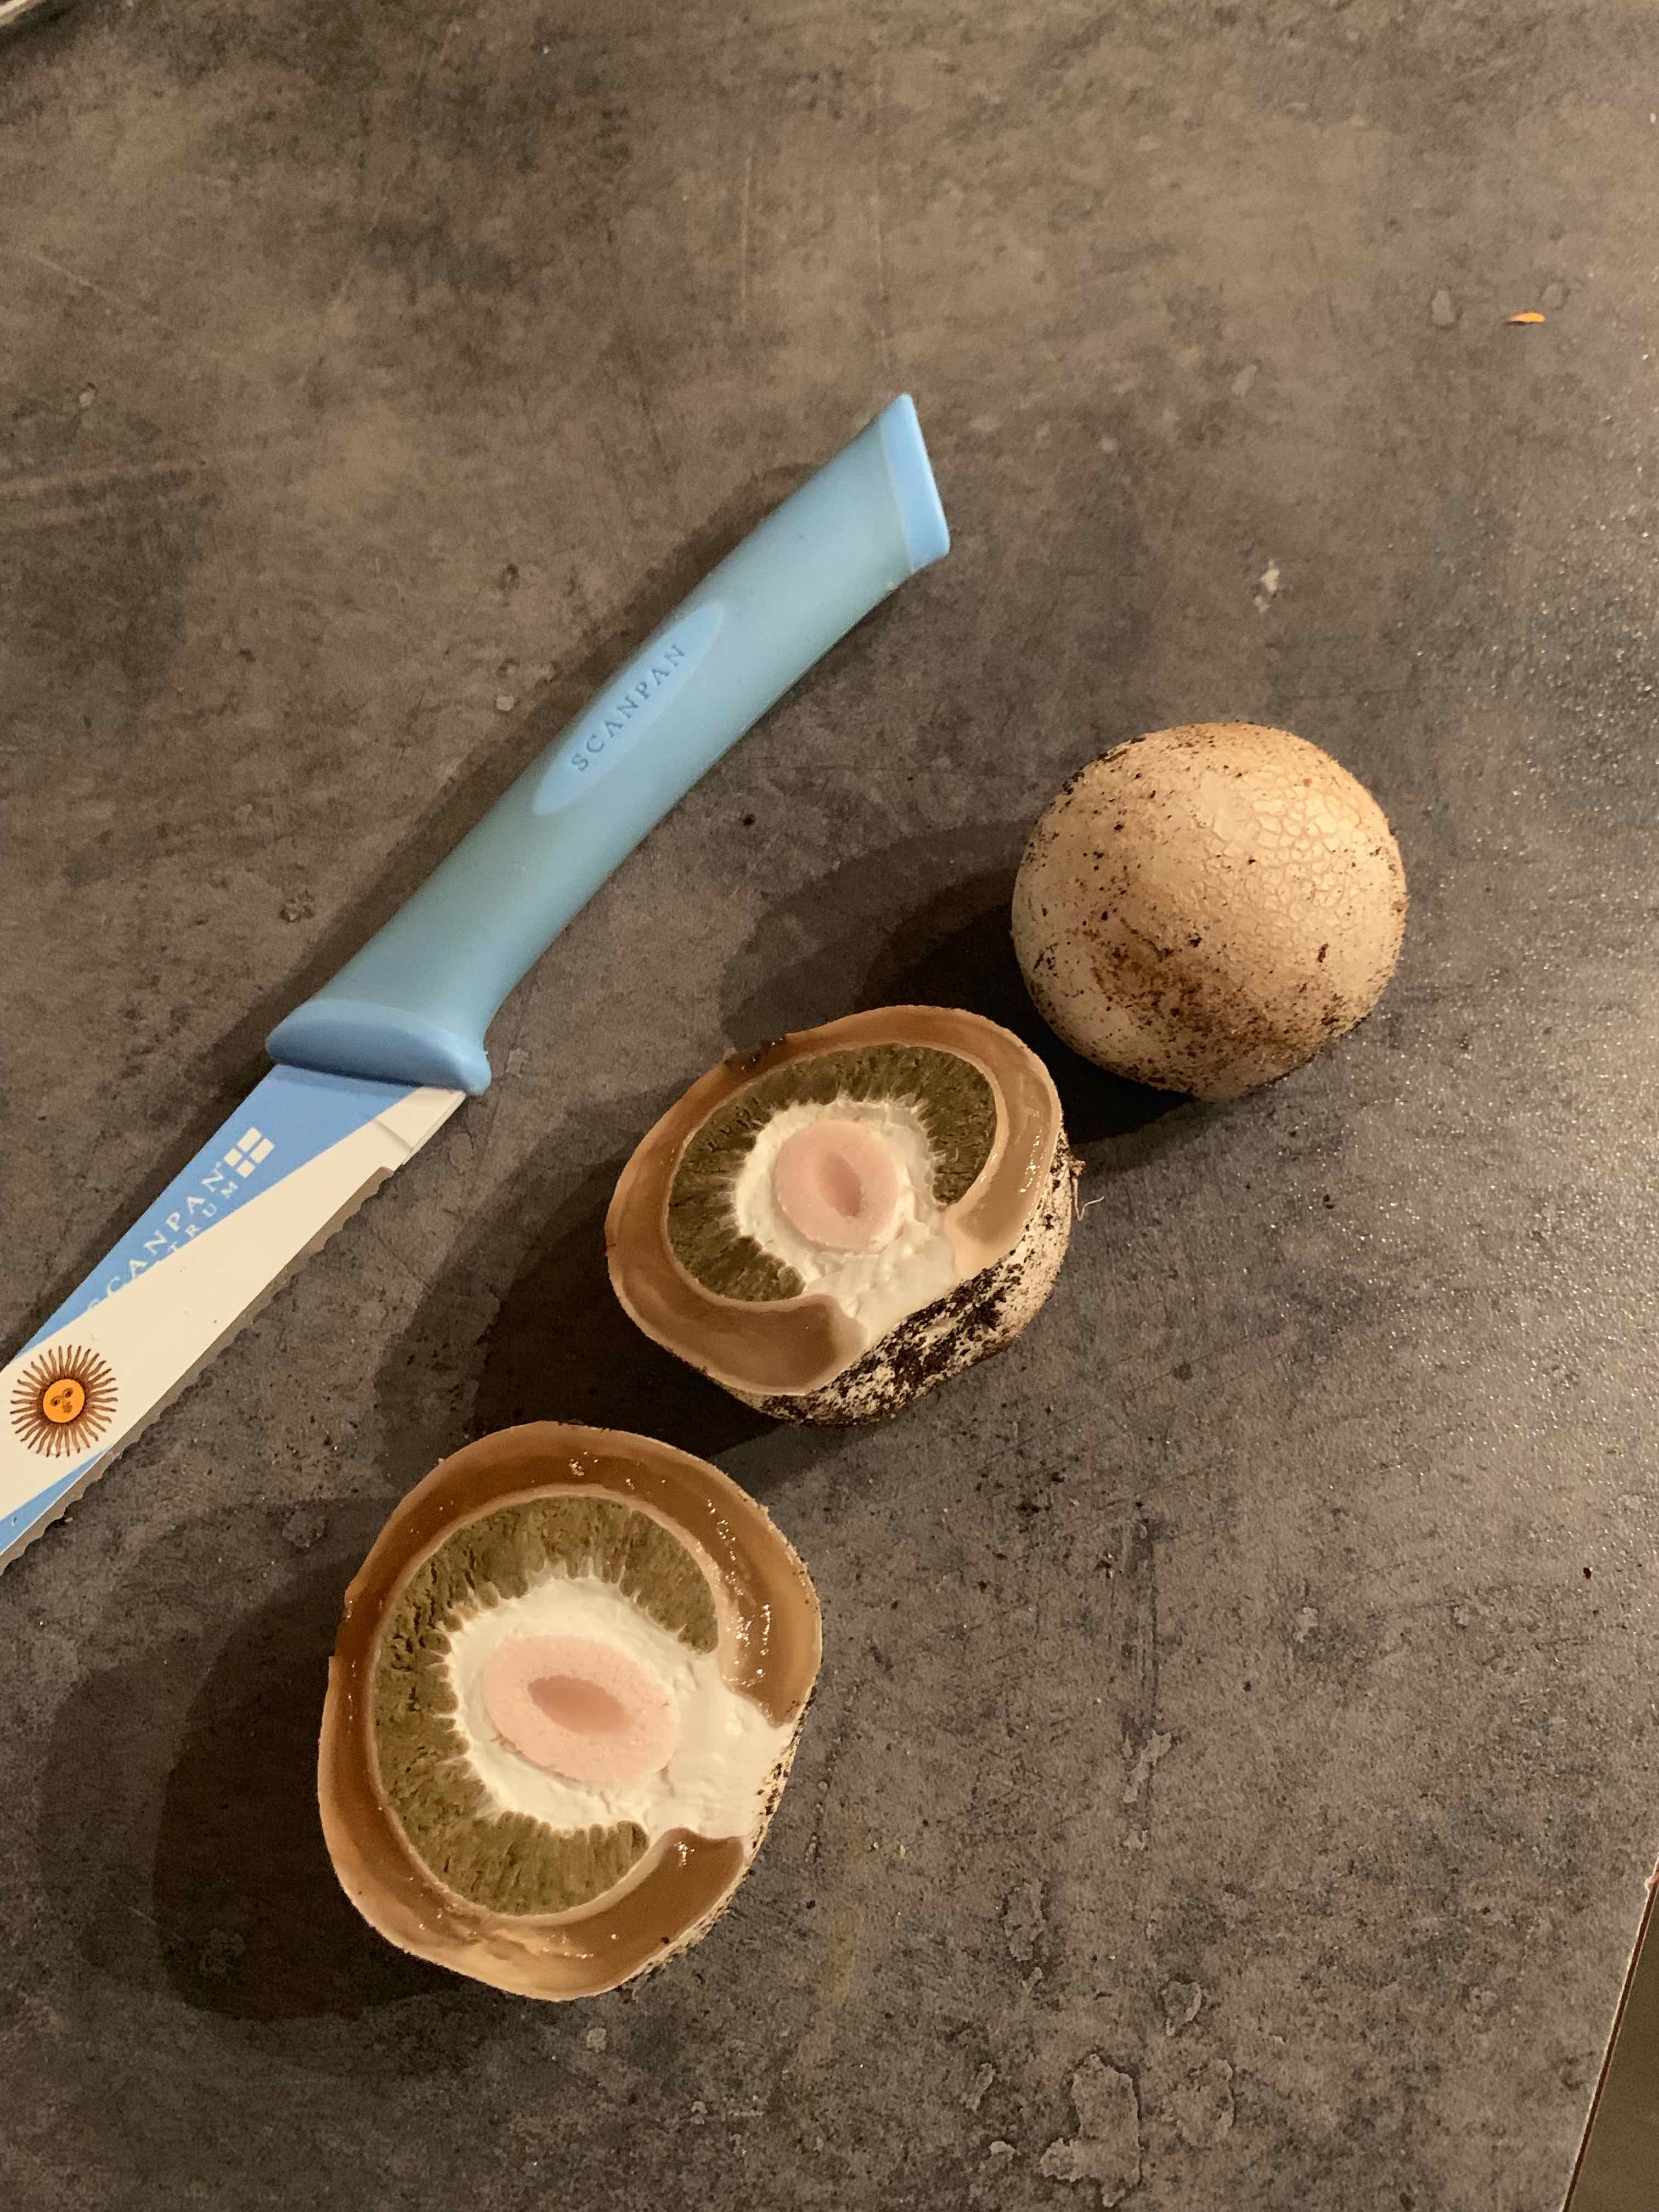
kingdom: Fungi
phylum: Basidiomycota
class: Agaricomycetes
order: Phallales
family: Phallaceae
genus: Phallus
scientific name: Phallus impudicus
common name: almindelig stinksvamp
